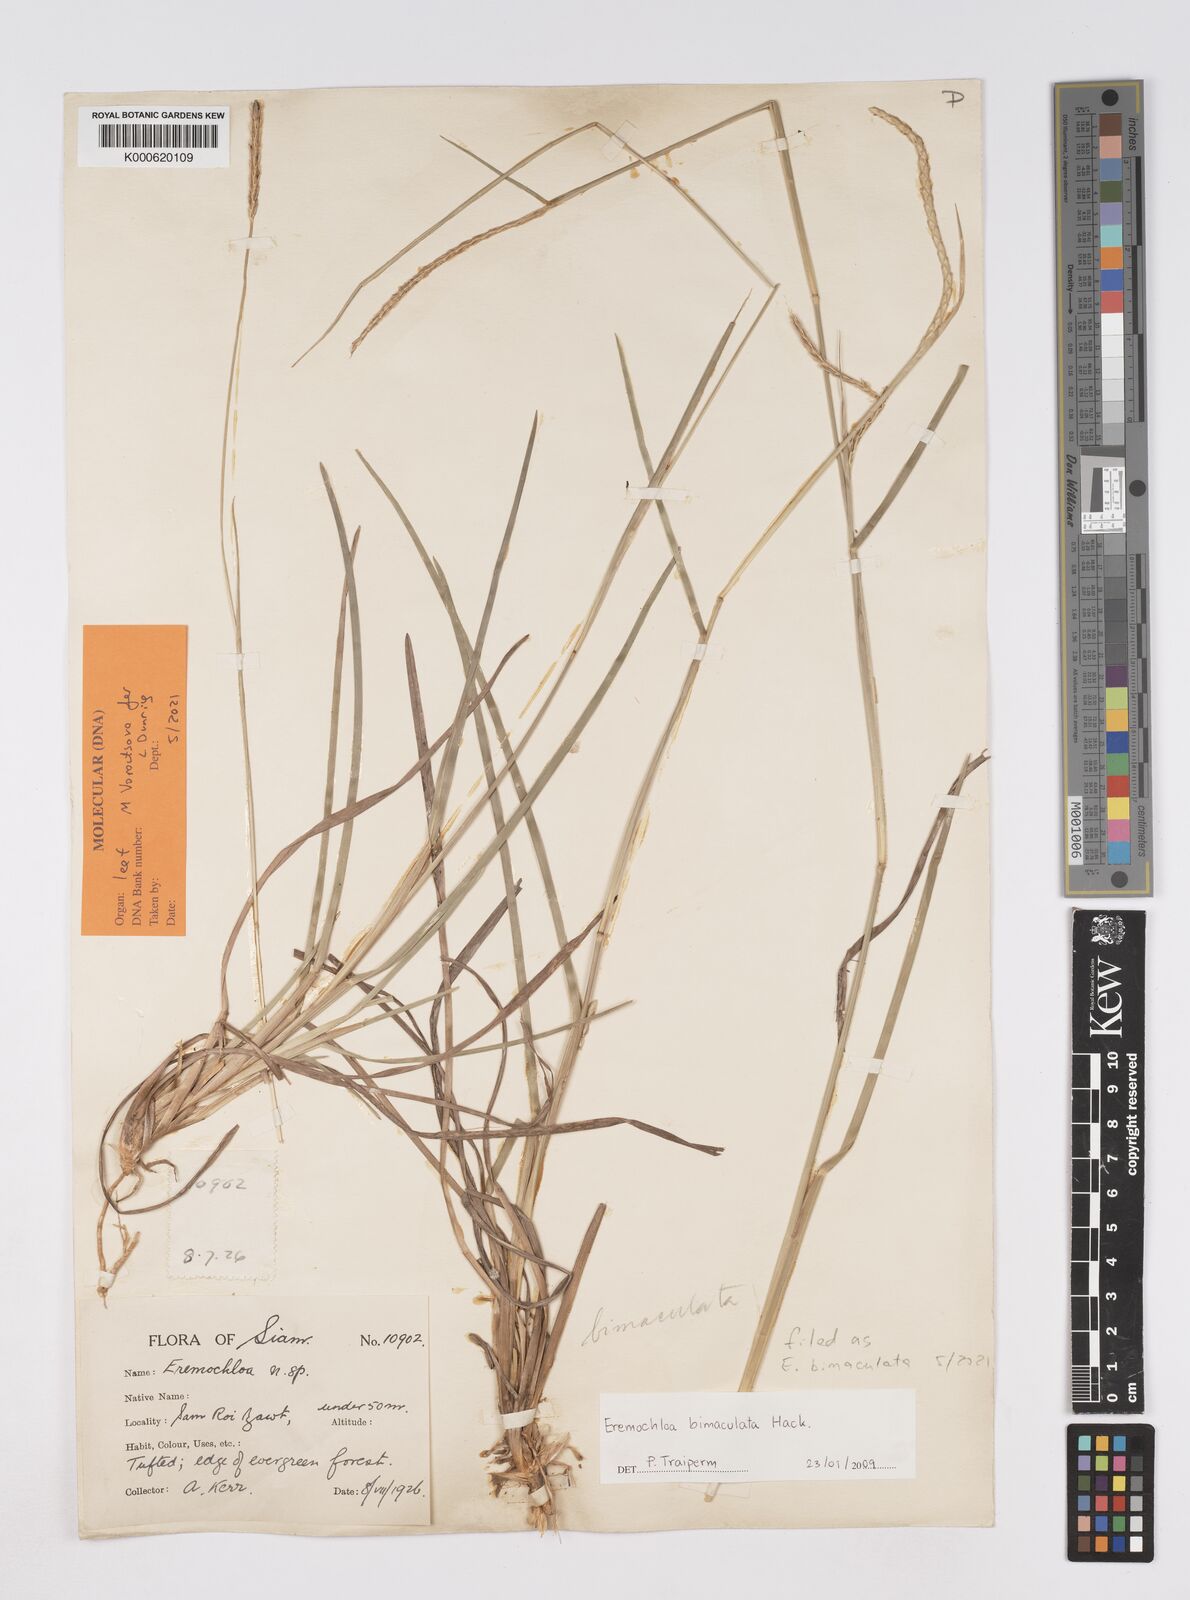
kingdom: Plantae
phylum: Tracheophyta
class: Liliopsida
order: Poales
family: Poaceae
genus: Eremochloa
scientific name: Eremochloa bimaculata
